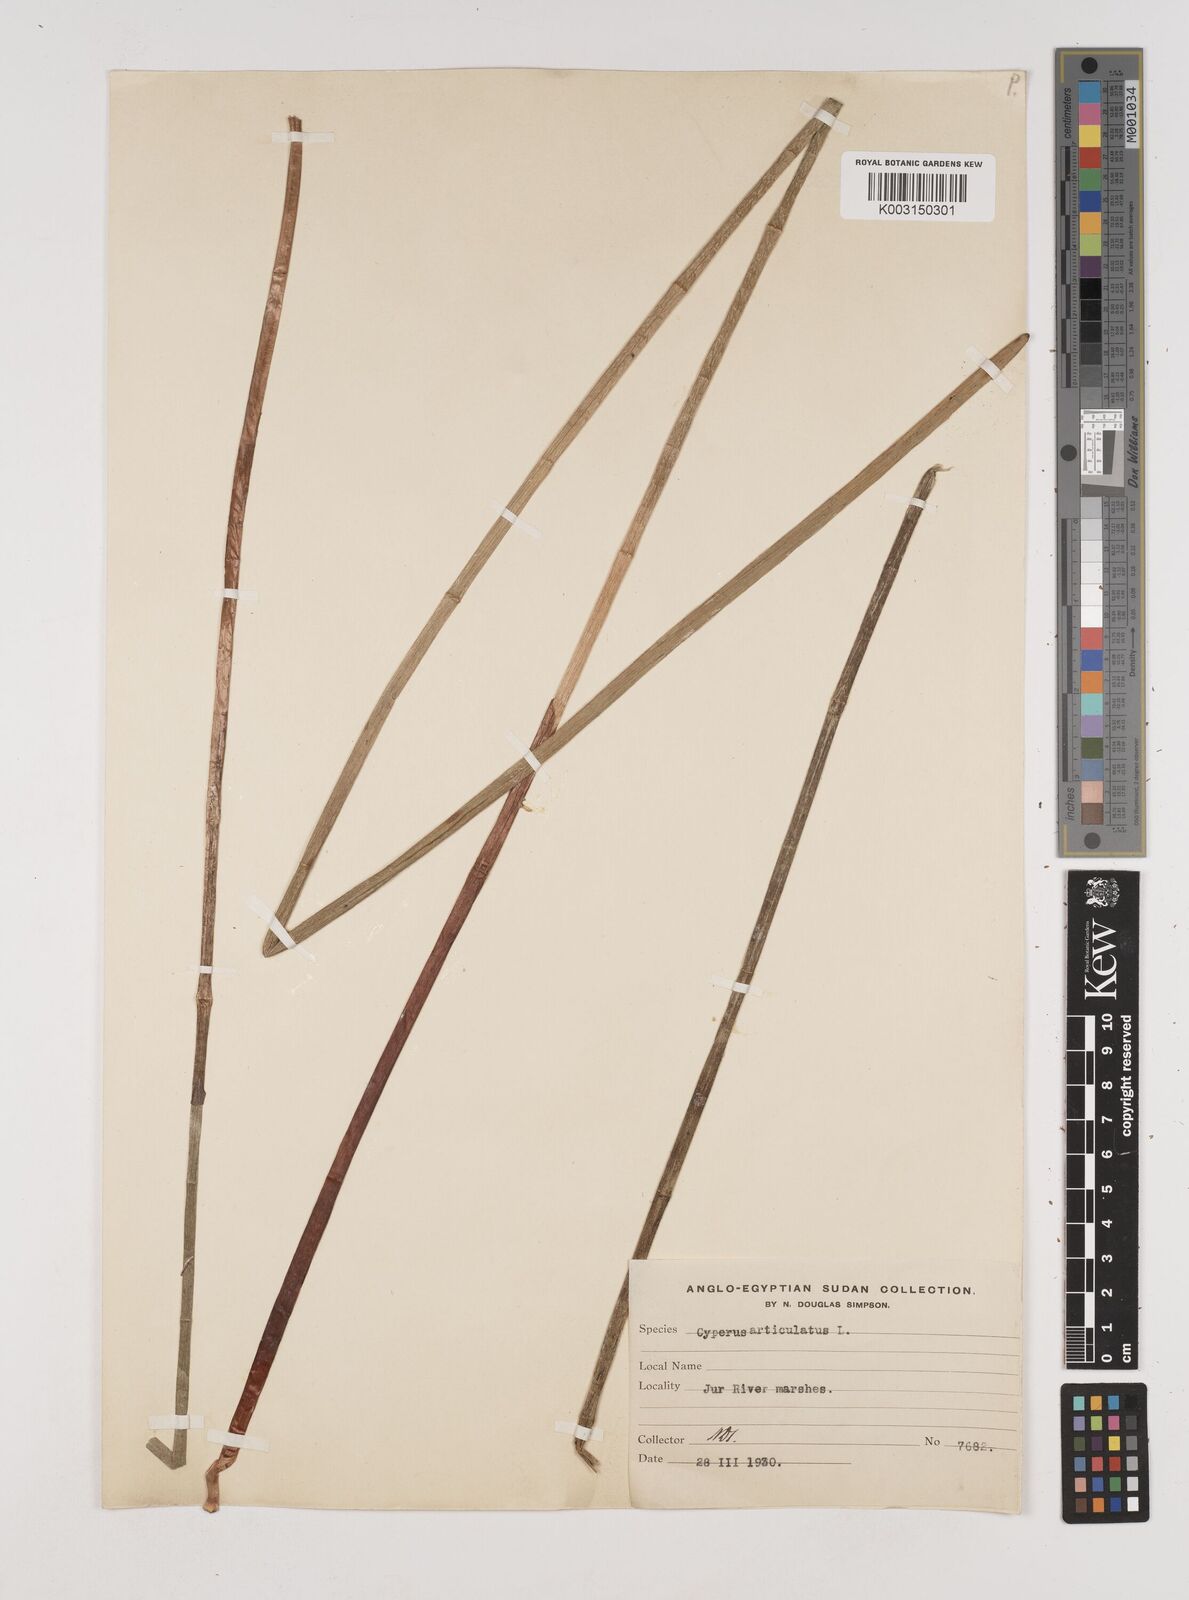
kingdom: Plantae
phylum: Tracheophyta
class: Liliopsida
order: Poales
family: Cyperaceae
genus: Cyperus
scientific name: Cyperus articulatus
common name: Jointed flatsedge
